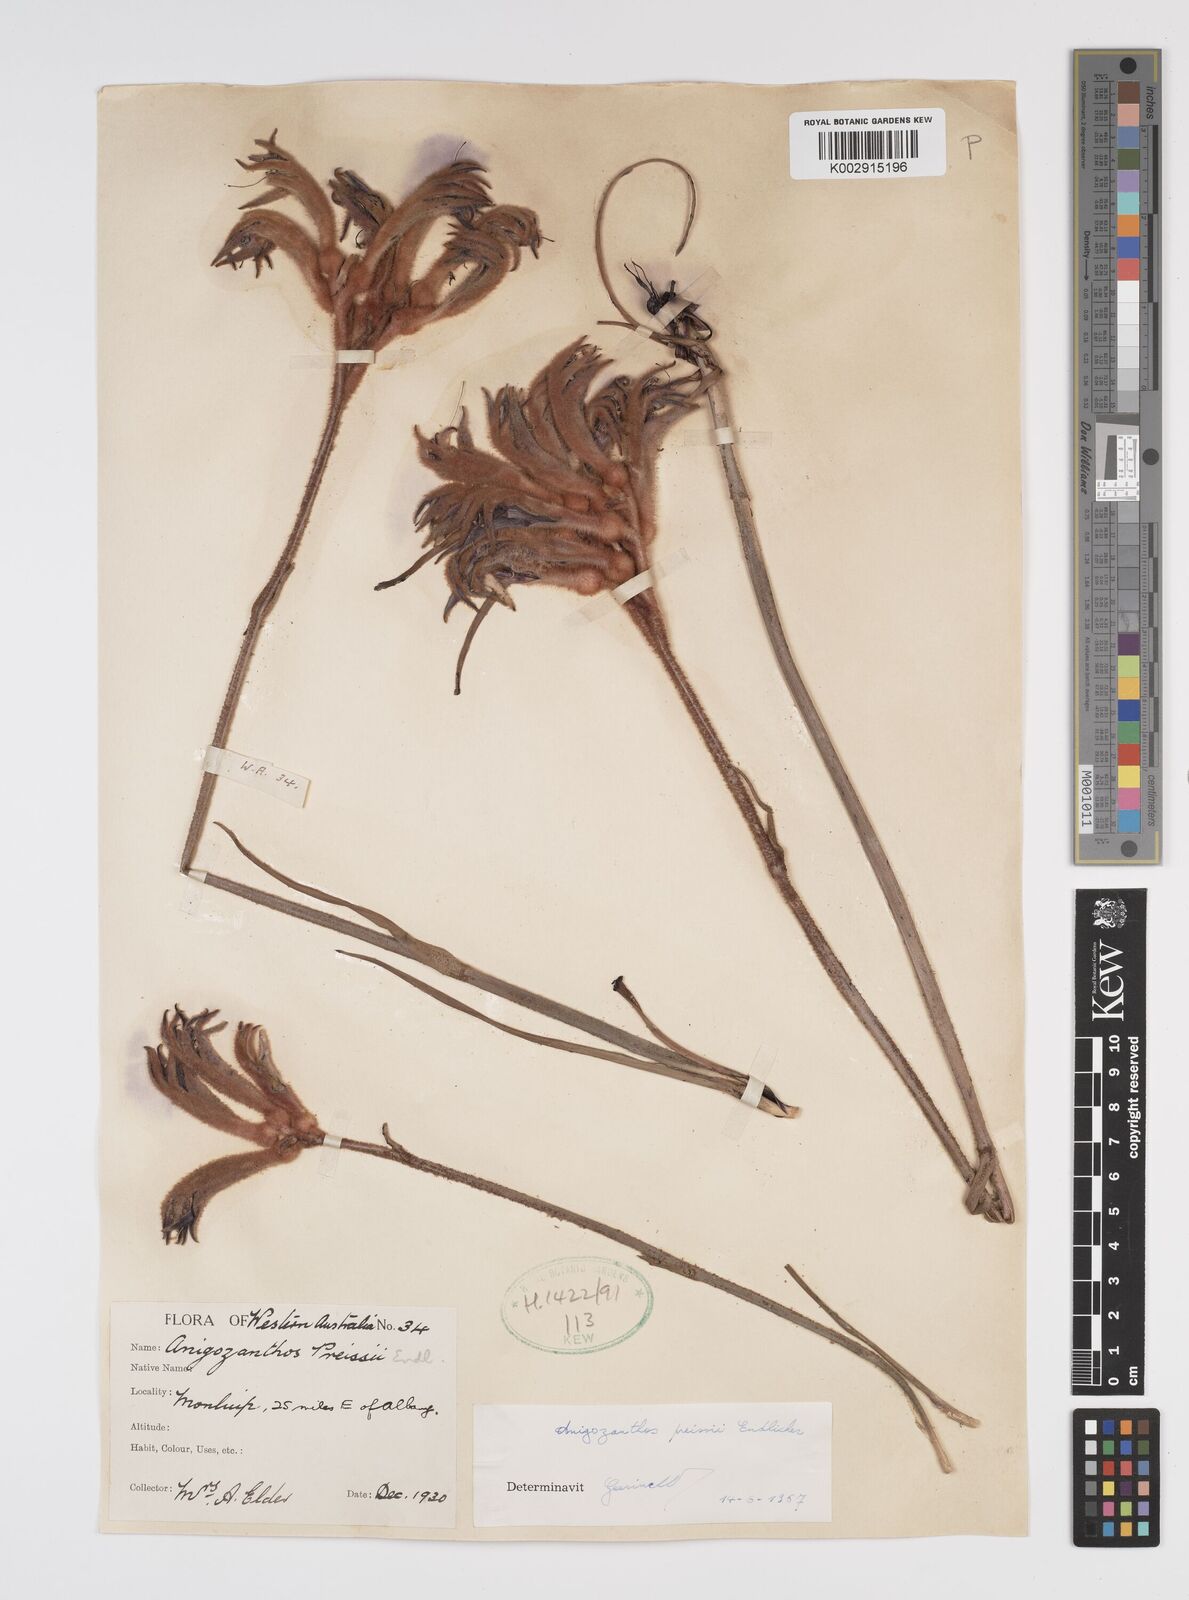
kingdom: Plantae
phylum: Tracheophyta
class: Liliopsida
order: Commelinales
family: Haemodoraceae
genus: Anigozanthos
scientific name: Anigozanthos preissii
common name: Albany cat's-paw
